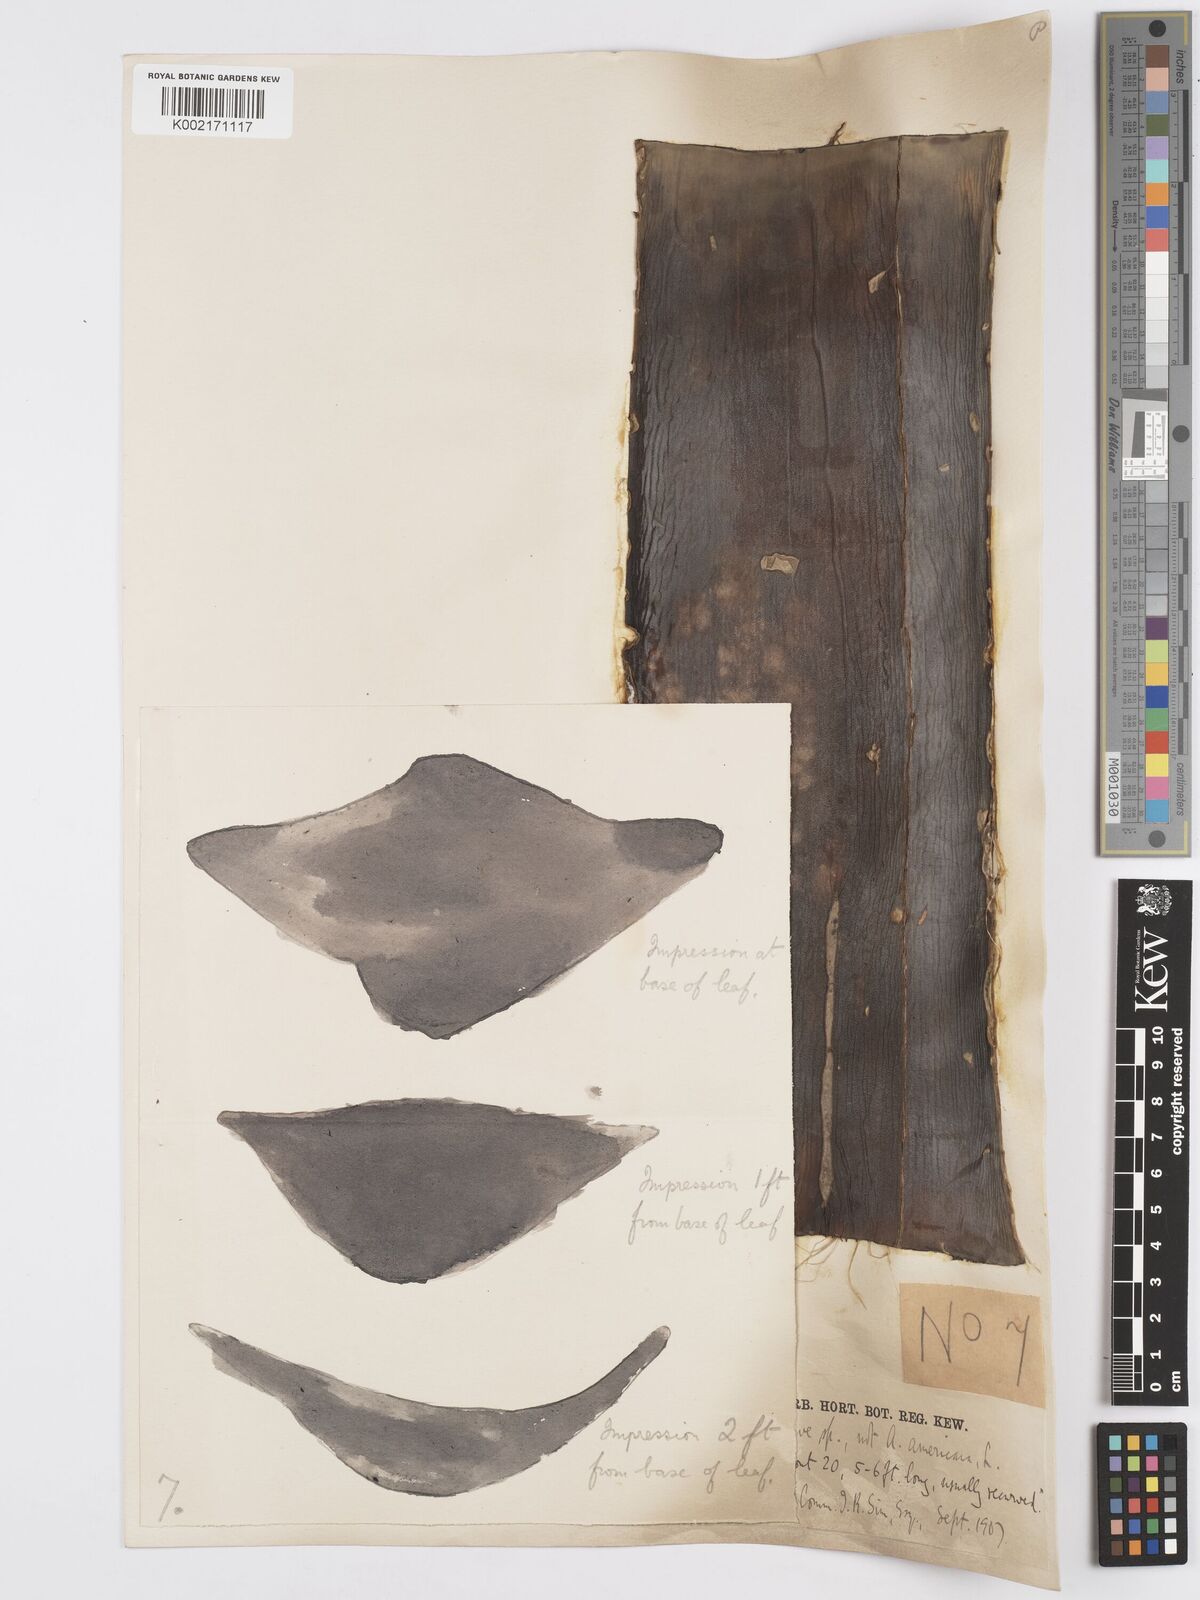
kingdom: Plantae
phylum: Tracheophyta
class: Liliopsida
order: Asparagales
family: Asparagaceae
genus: Agave
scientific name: Agave
